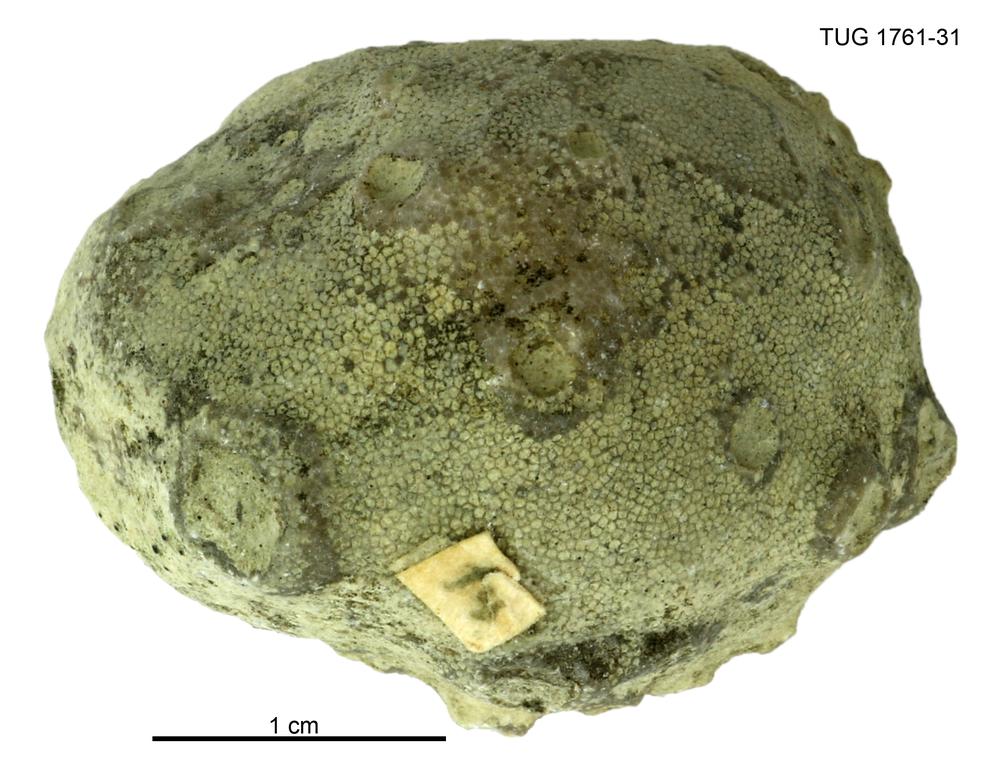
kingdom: Animalia
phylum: Bryozoa
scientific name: Bryozoa
